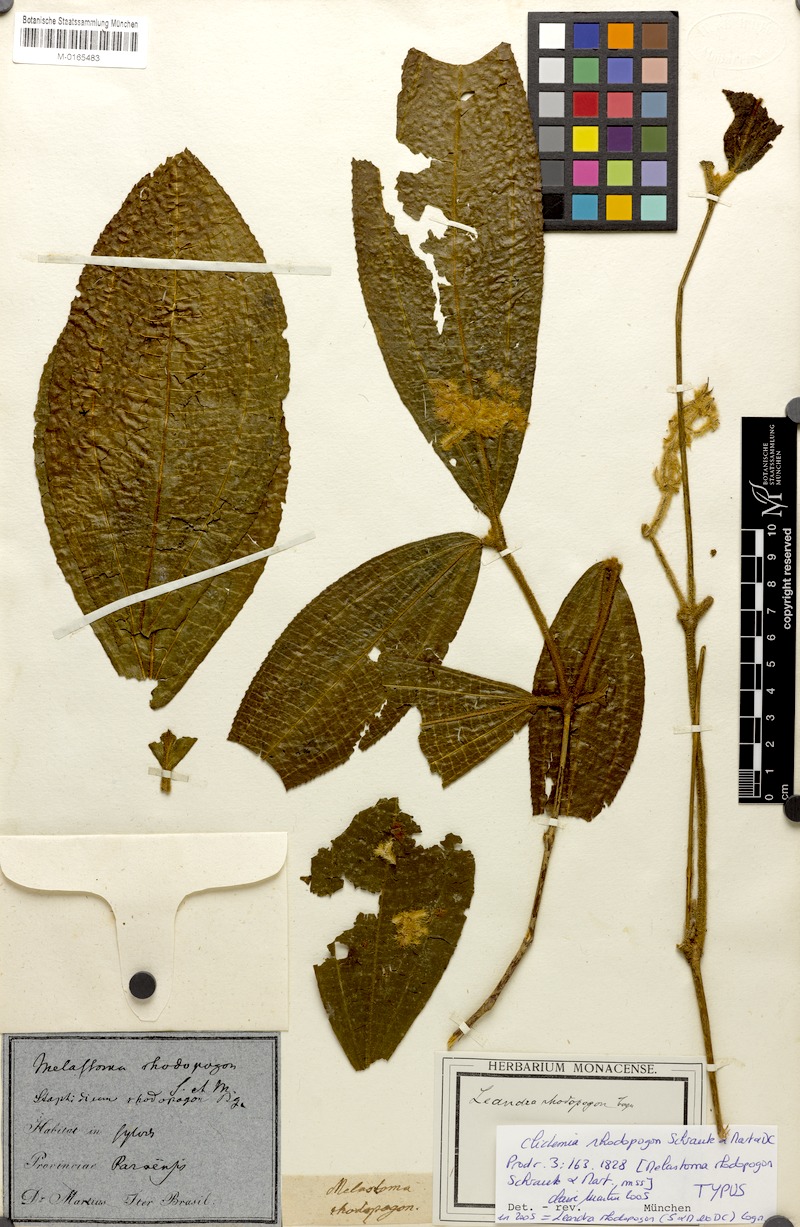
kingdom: Plantae
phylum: Tracheophyta
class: Magnoliopsida
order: Myrtales
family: Melastomataceae
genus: Miconia
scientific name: Miconia rhodopogon
